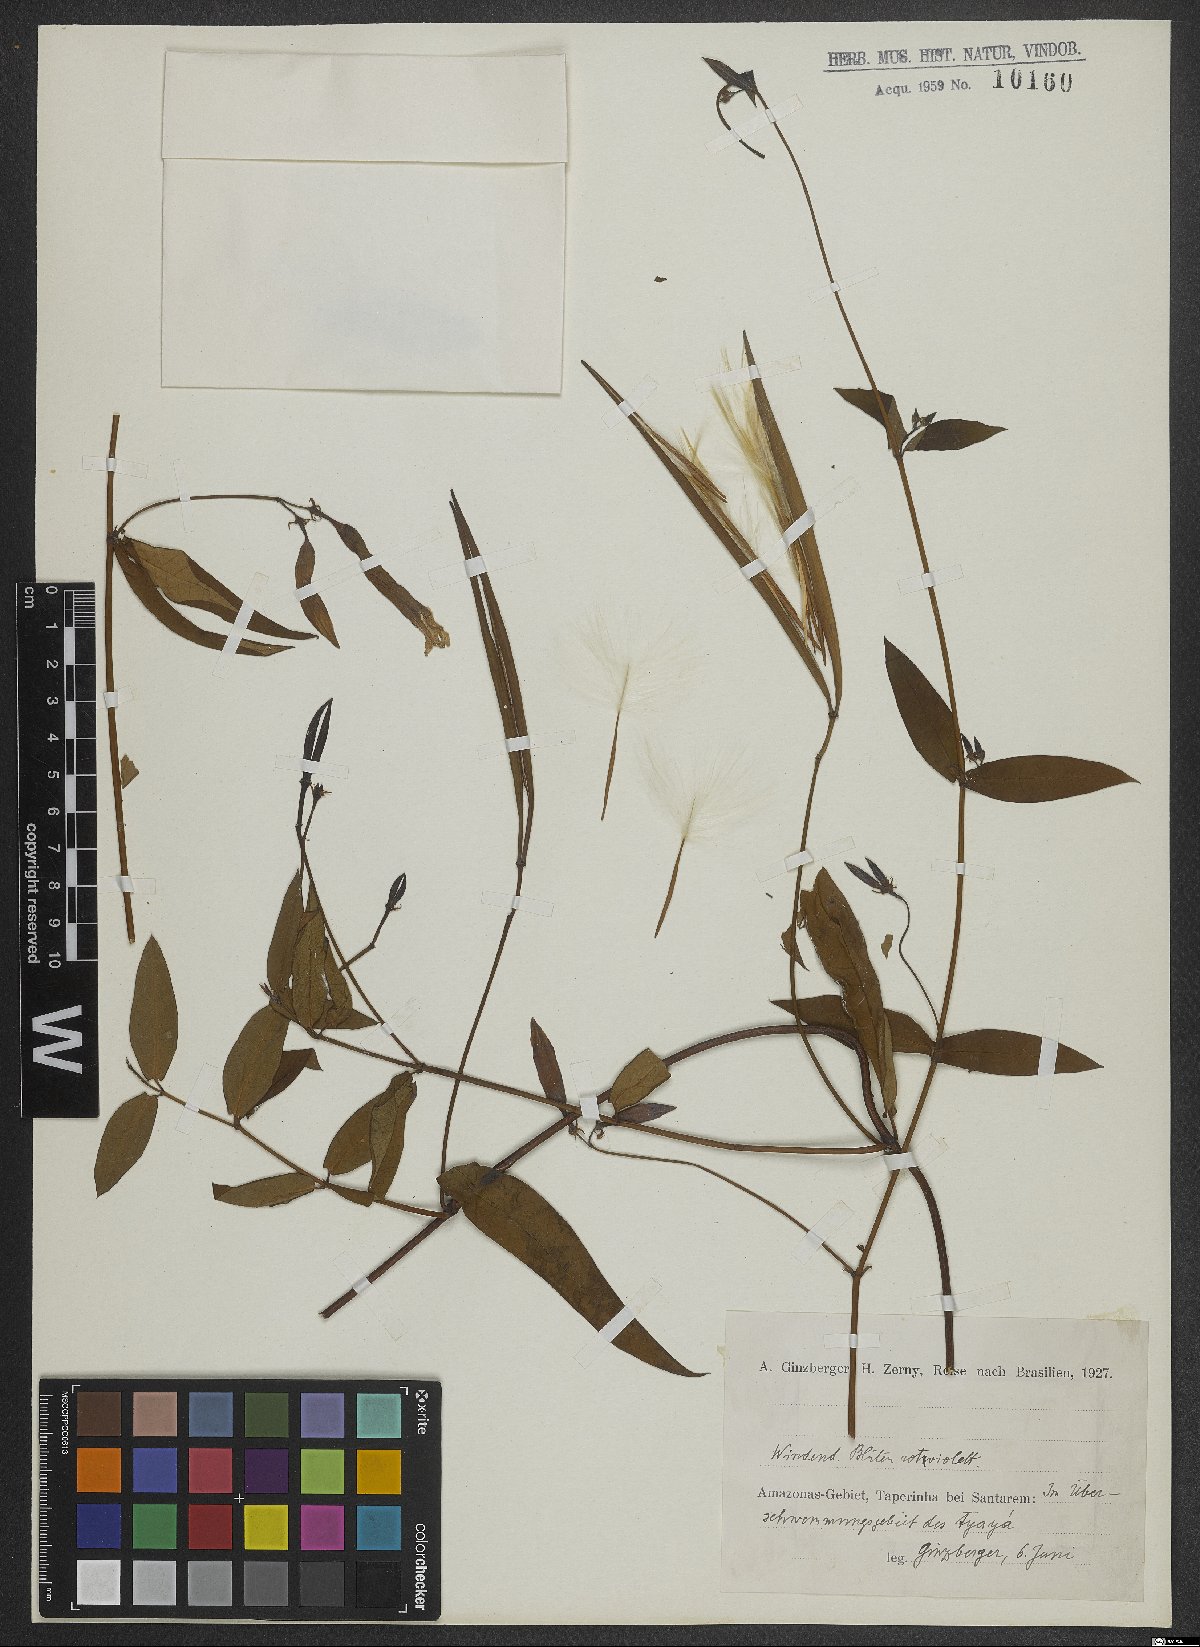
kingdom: Plantae
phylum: Tracheophyta
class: Magnoliopsida
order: Dipsacales
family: Valerianaceae
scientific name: Valerianaceae
